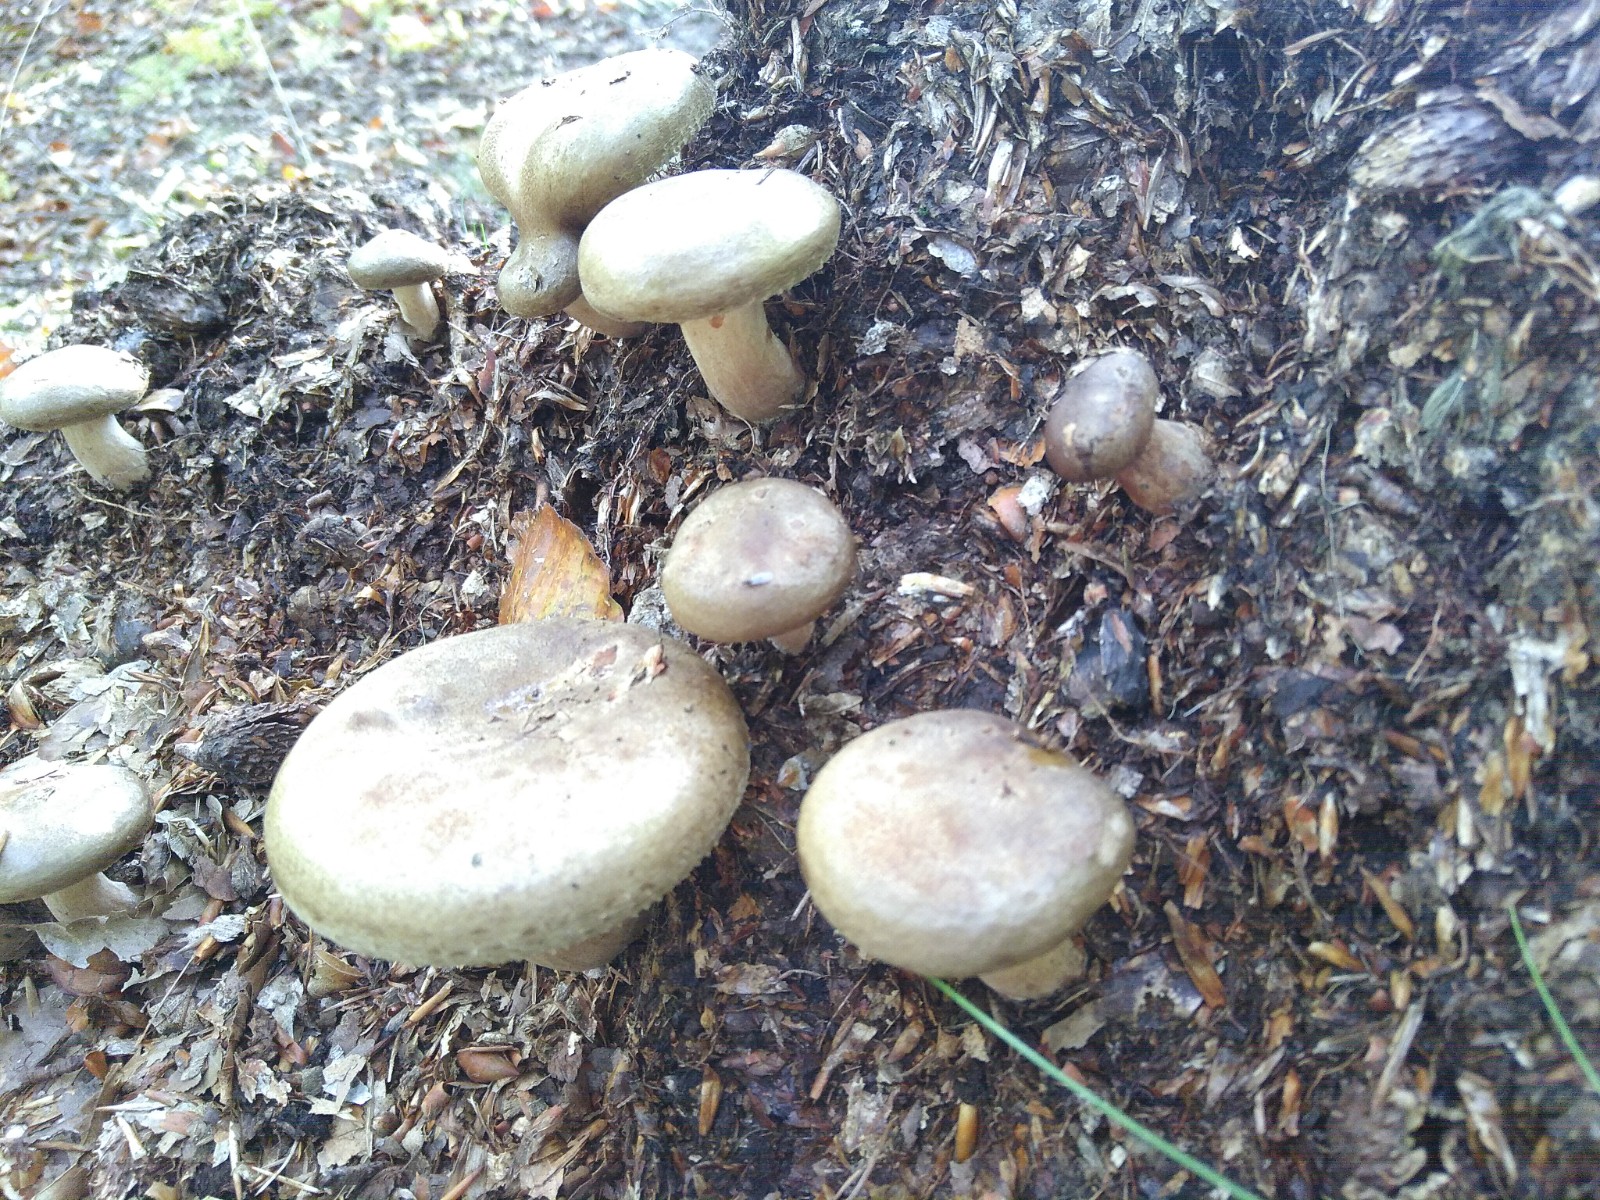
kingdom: Fungi
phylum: Basidiomycota
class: Agaricomycetes
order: Boletales
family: Paxillaceae
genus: Paxillus
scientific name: Paxillus
